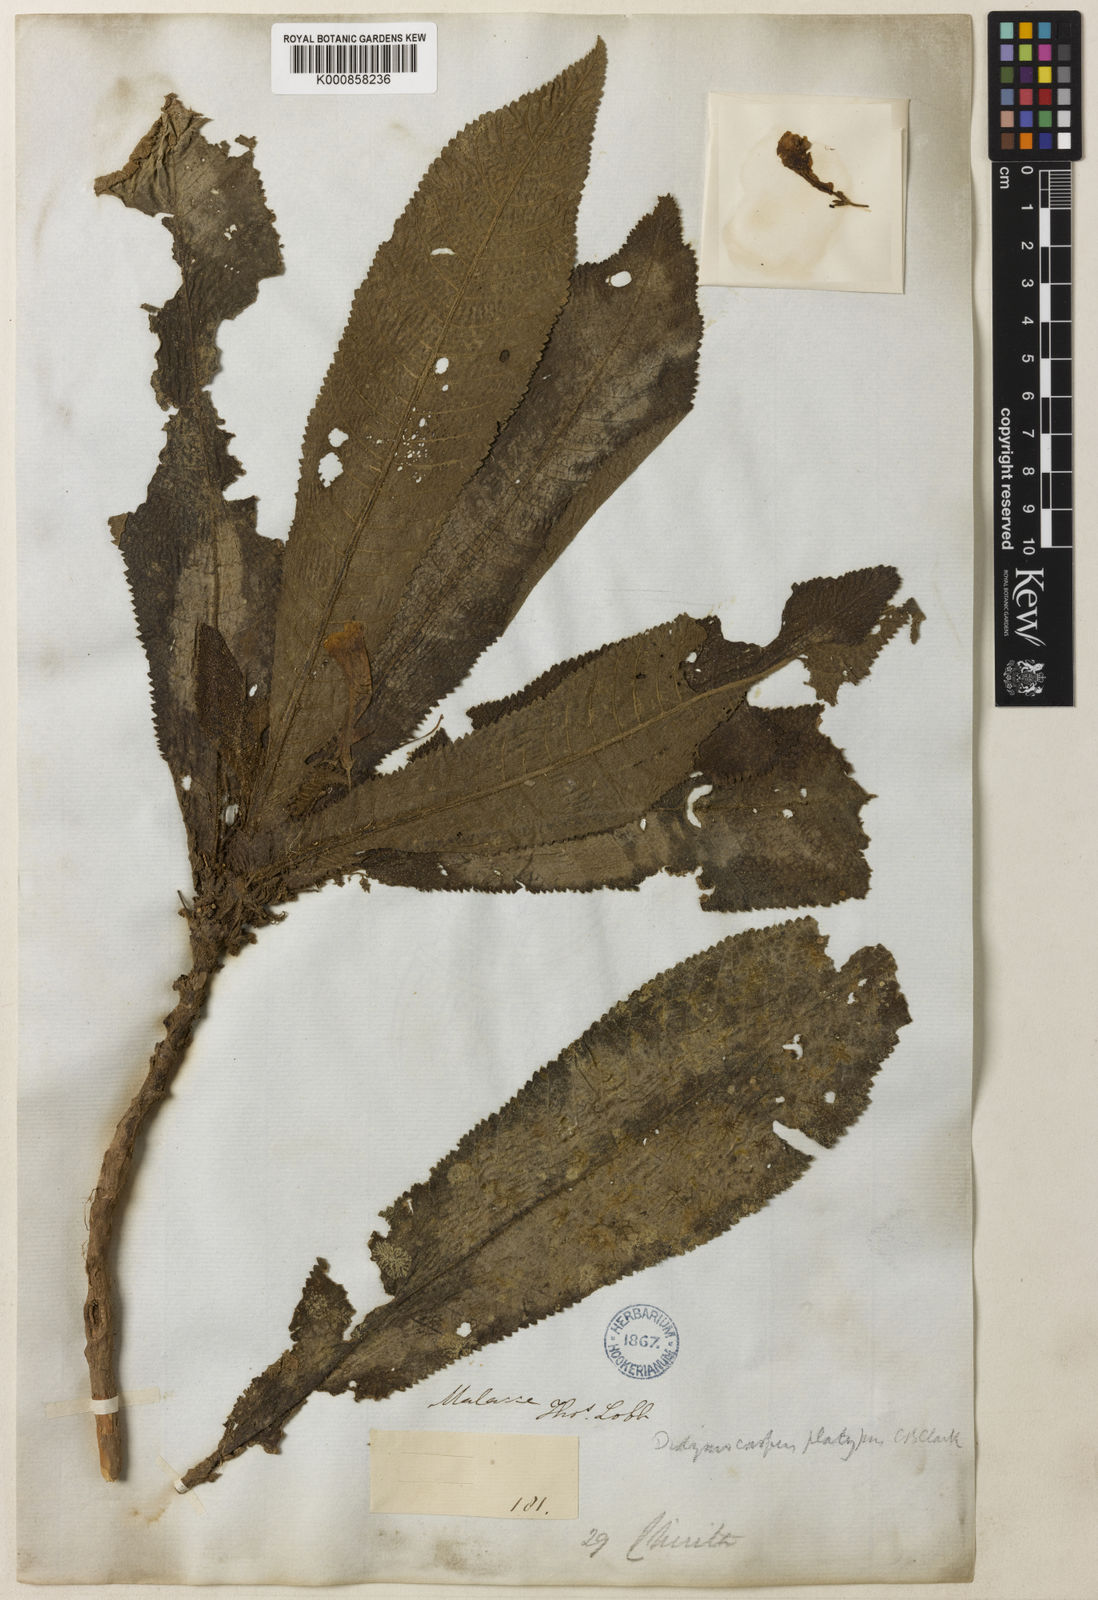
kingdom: Plantae
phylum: Tracheophyta
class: Magnoliopsida
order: Lamiales
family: Gesneriaceae
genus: Codonoboea
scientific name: Codonoboea platypus
